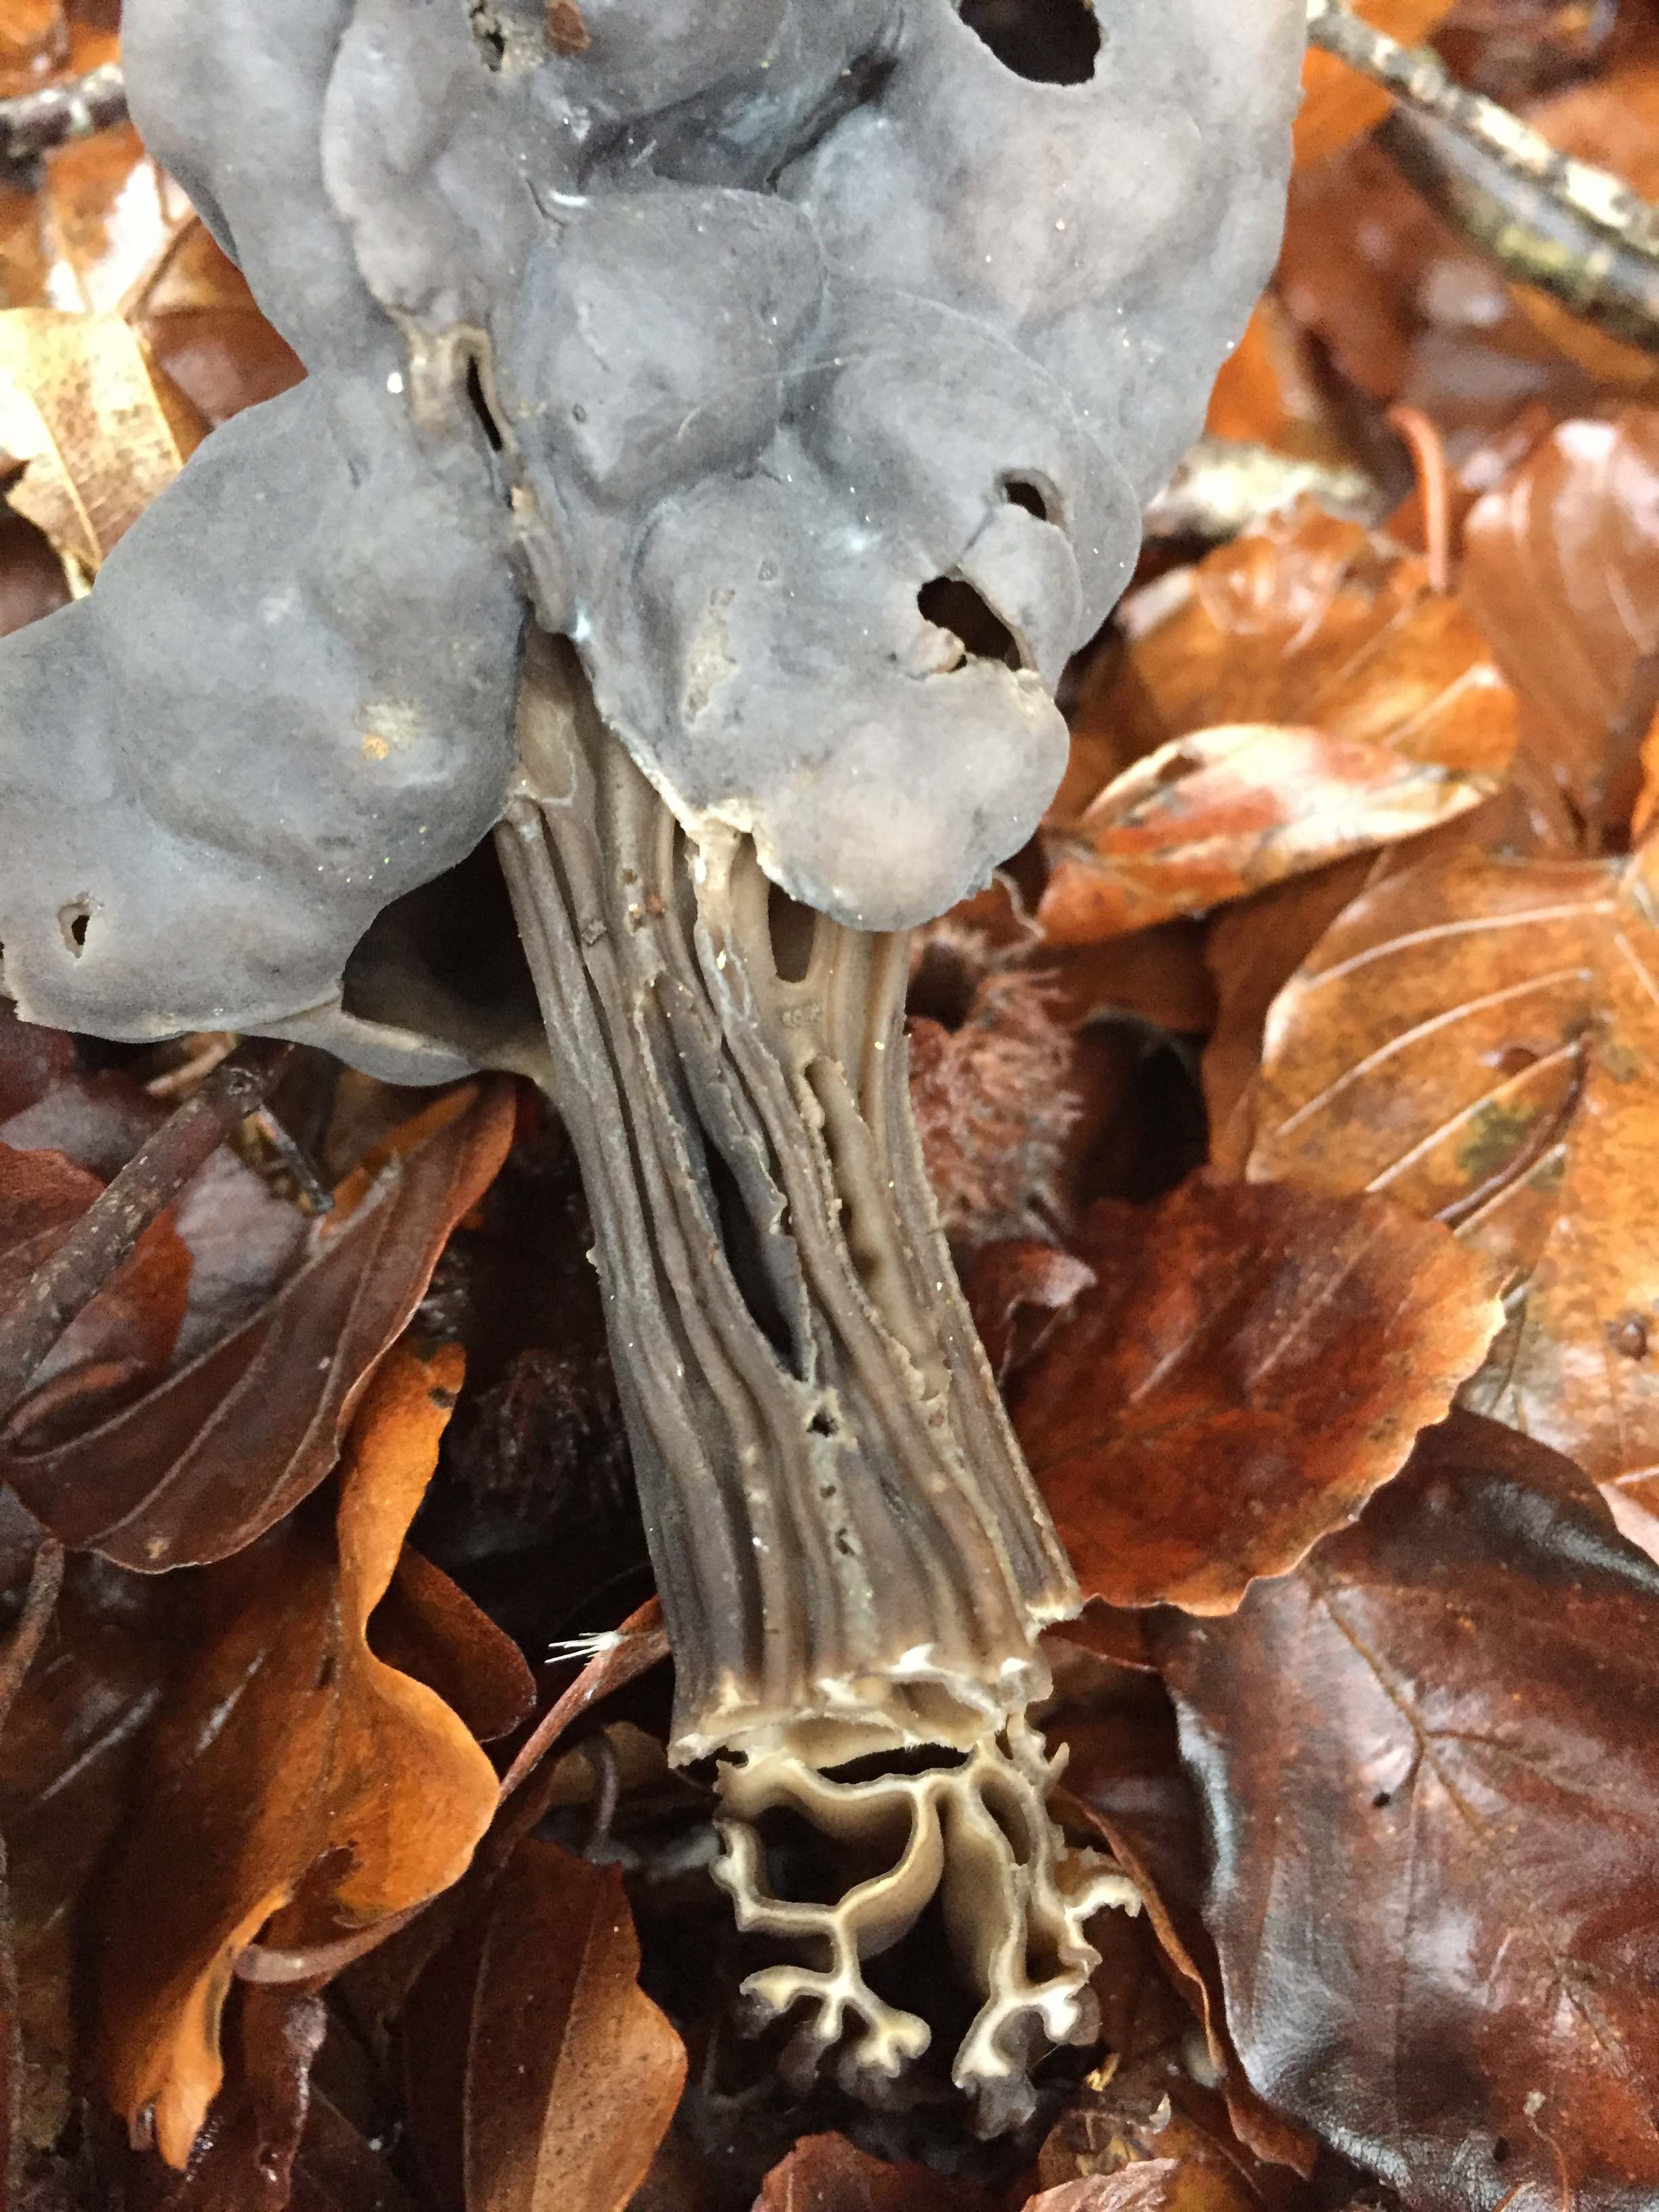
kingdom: Fungi
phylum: Ascomycota
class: Pezizomycetes
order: Pezizales
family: Helvellaceae
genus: Helvella
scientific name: Helvella lacunosa
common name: grubet foldhat
